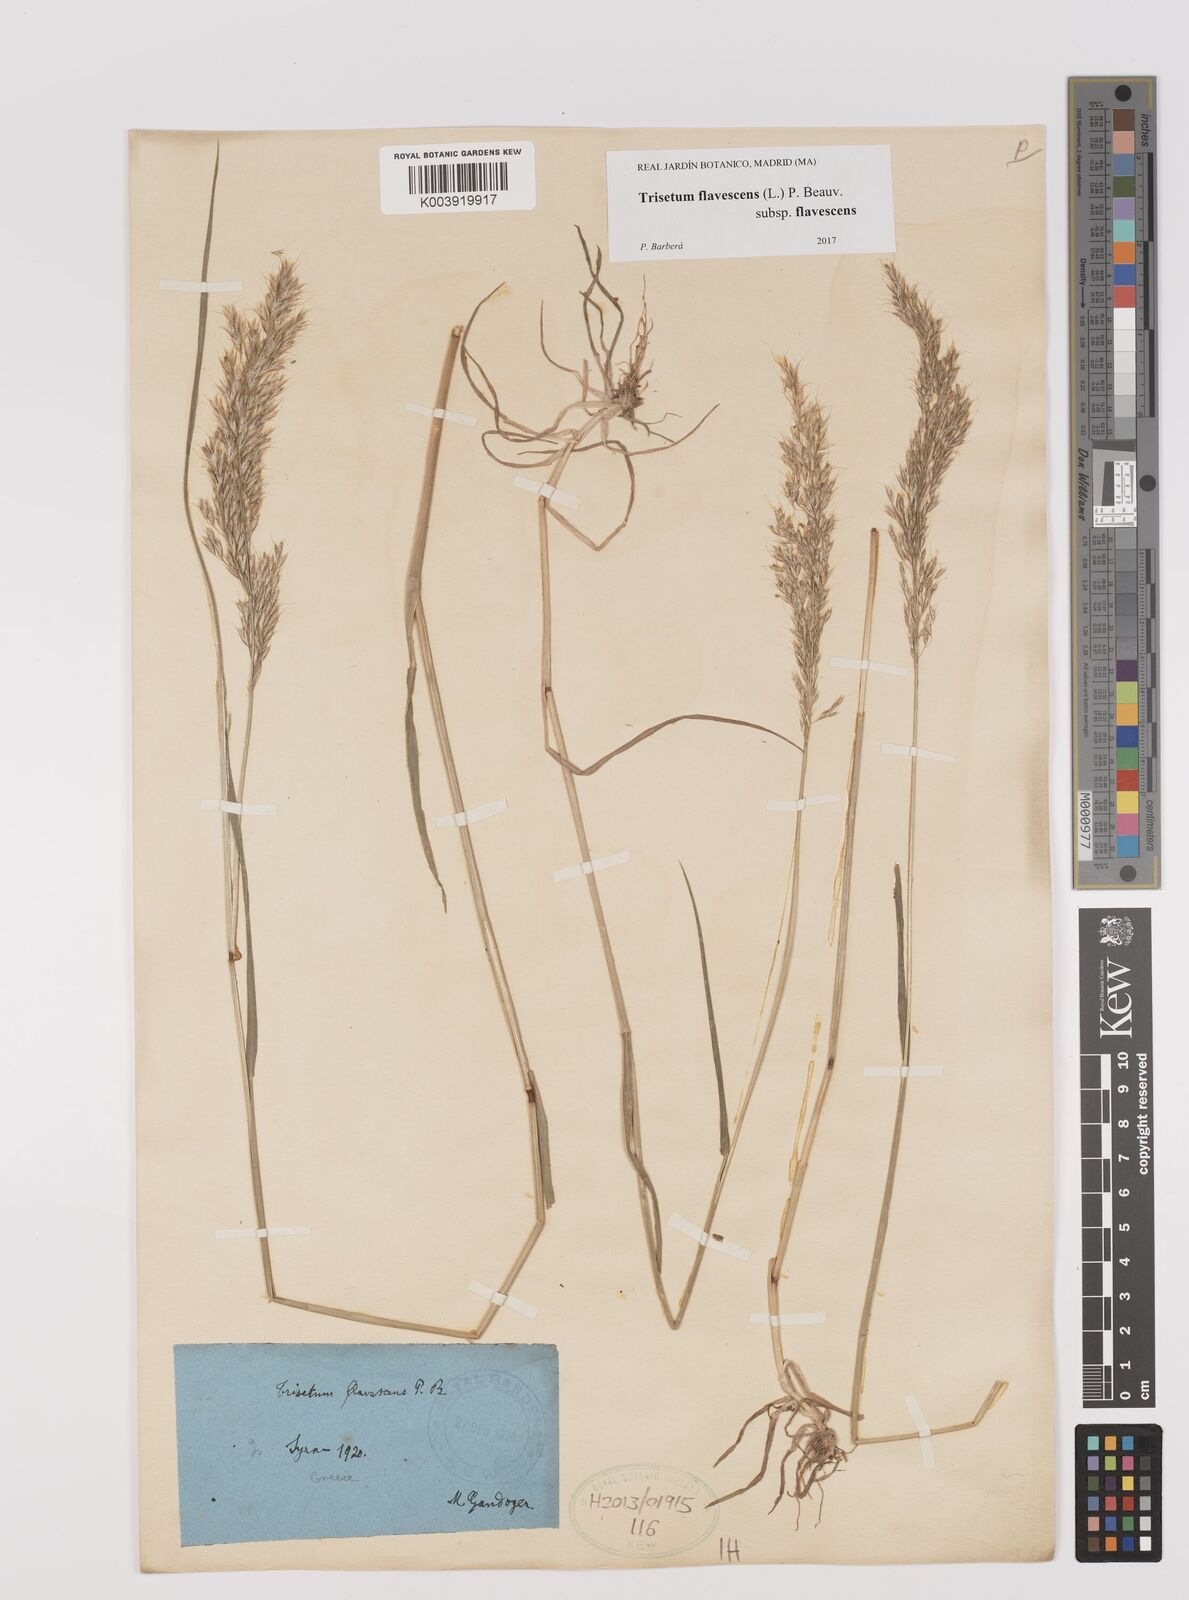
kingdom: Plantae
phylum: Tracheophyta
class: Liliopsida
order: Poales
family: Poaceae
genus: Trisetum
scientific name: Trisetum flavescens
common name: Yellow oat-grass
